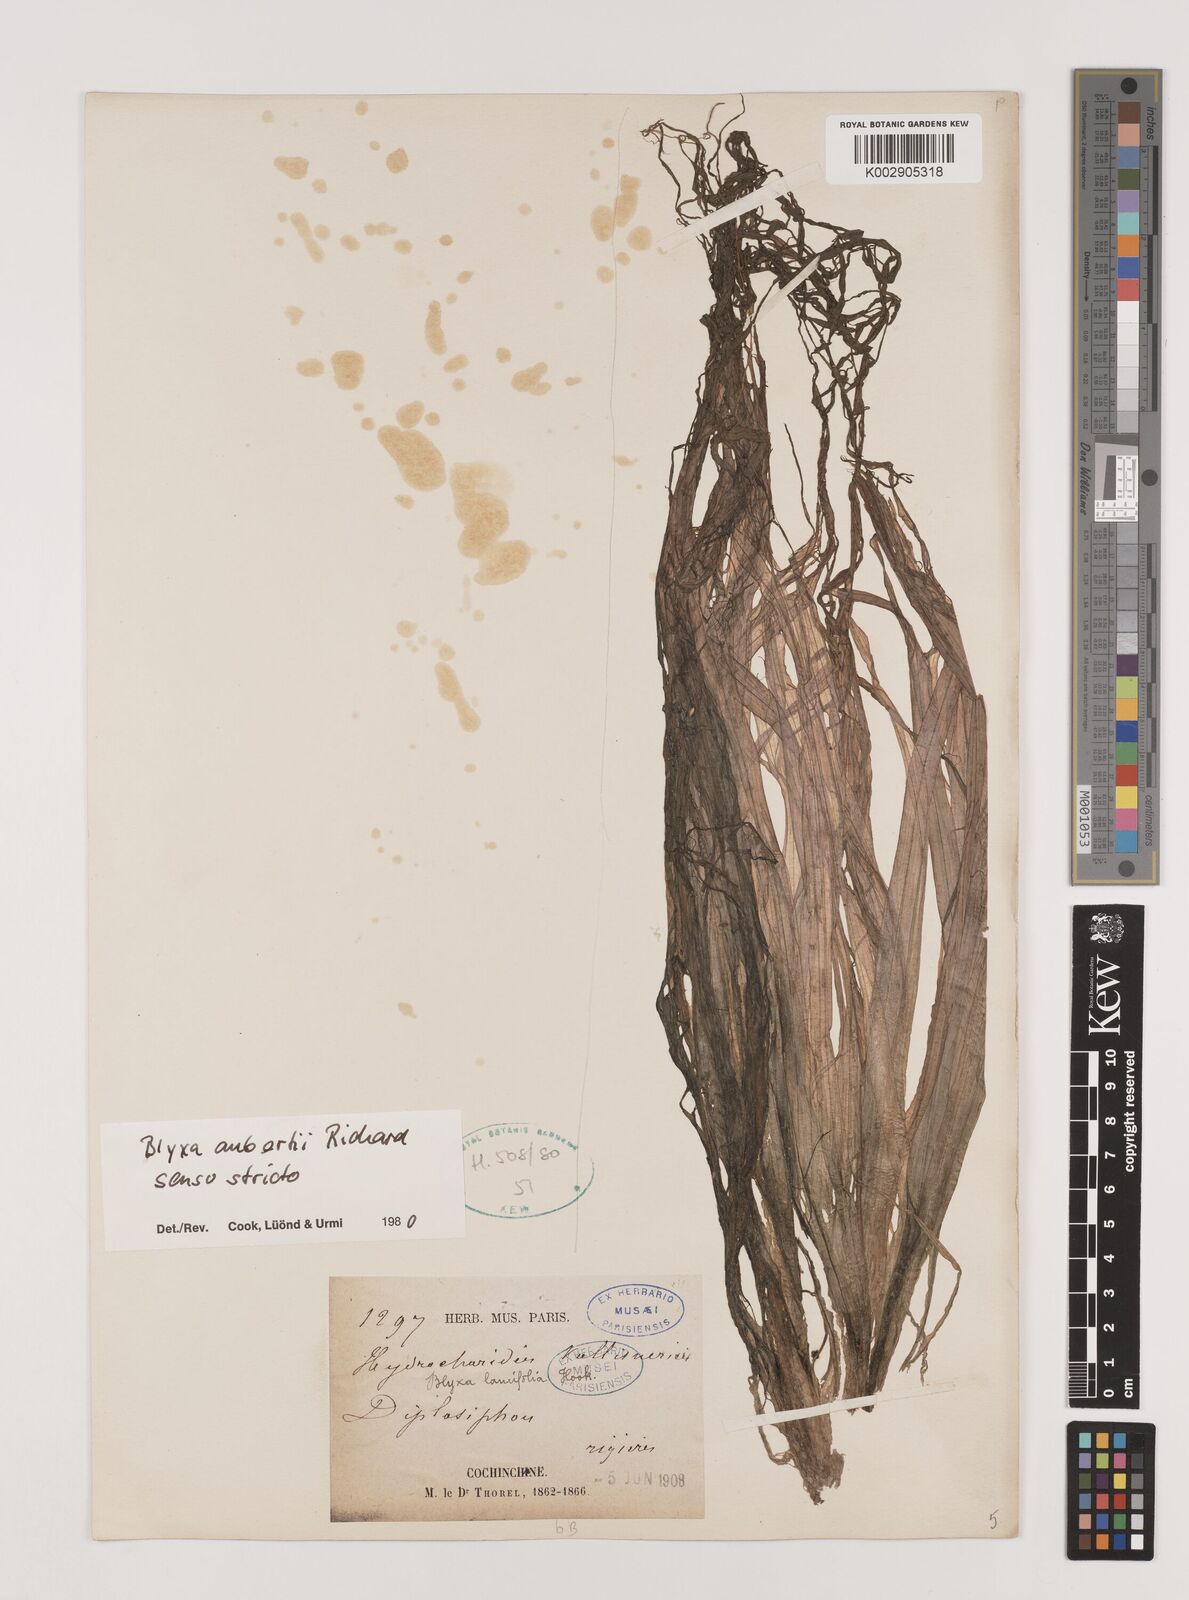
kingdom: Plantae
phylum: Tracheophyta
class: Liliopsida
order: Alismatales
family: Hydrocharitaceae
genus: Blyxa
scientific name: Blyxa aubertii
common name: Roundfruit blyxa
